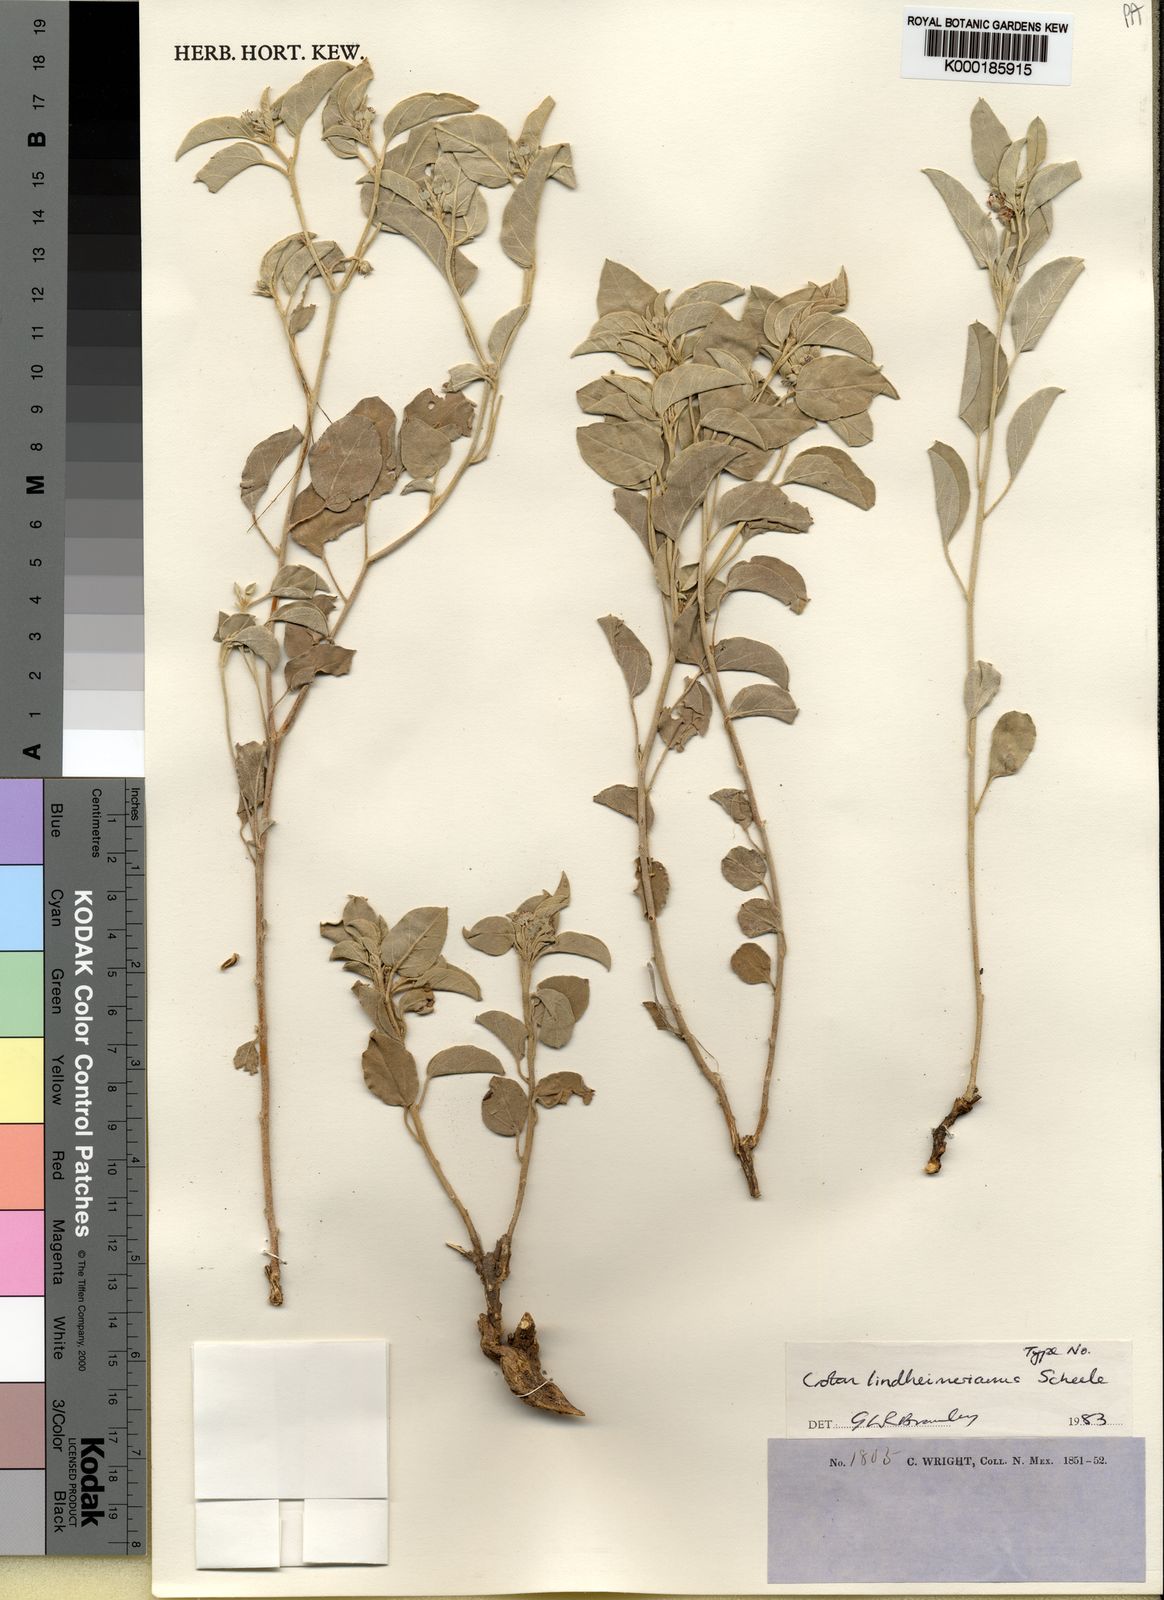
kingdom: Plantae
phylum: Tracheophyta
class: Magnoliopsida
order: Malpighiales
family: Euphorbiaceae
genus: Croton
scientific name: Croton lindheimerianus
